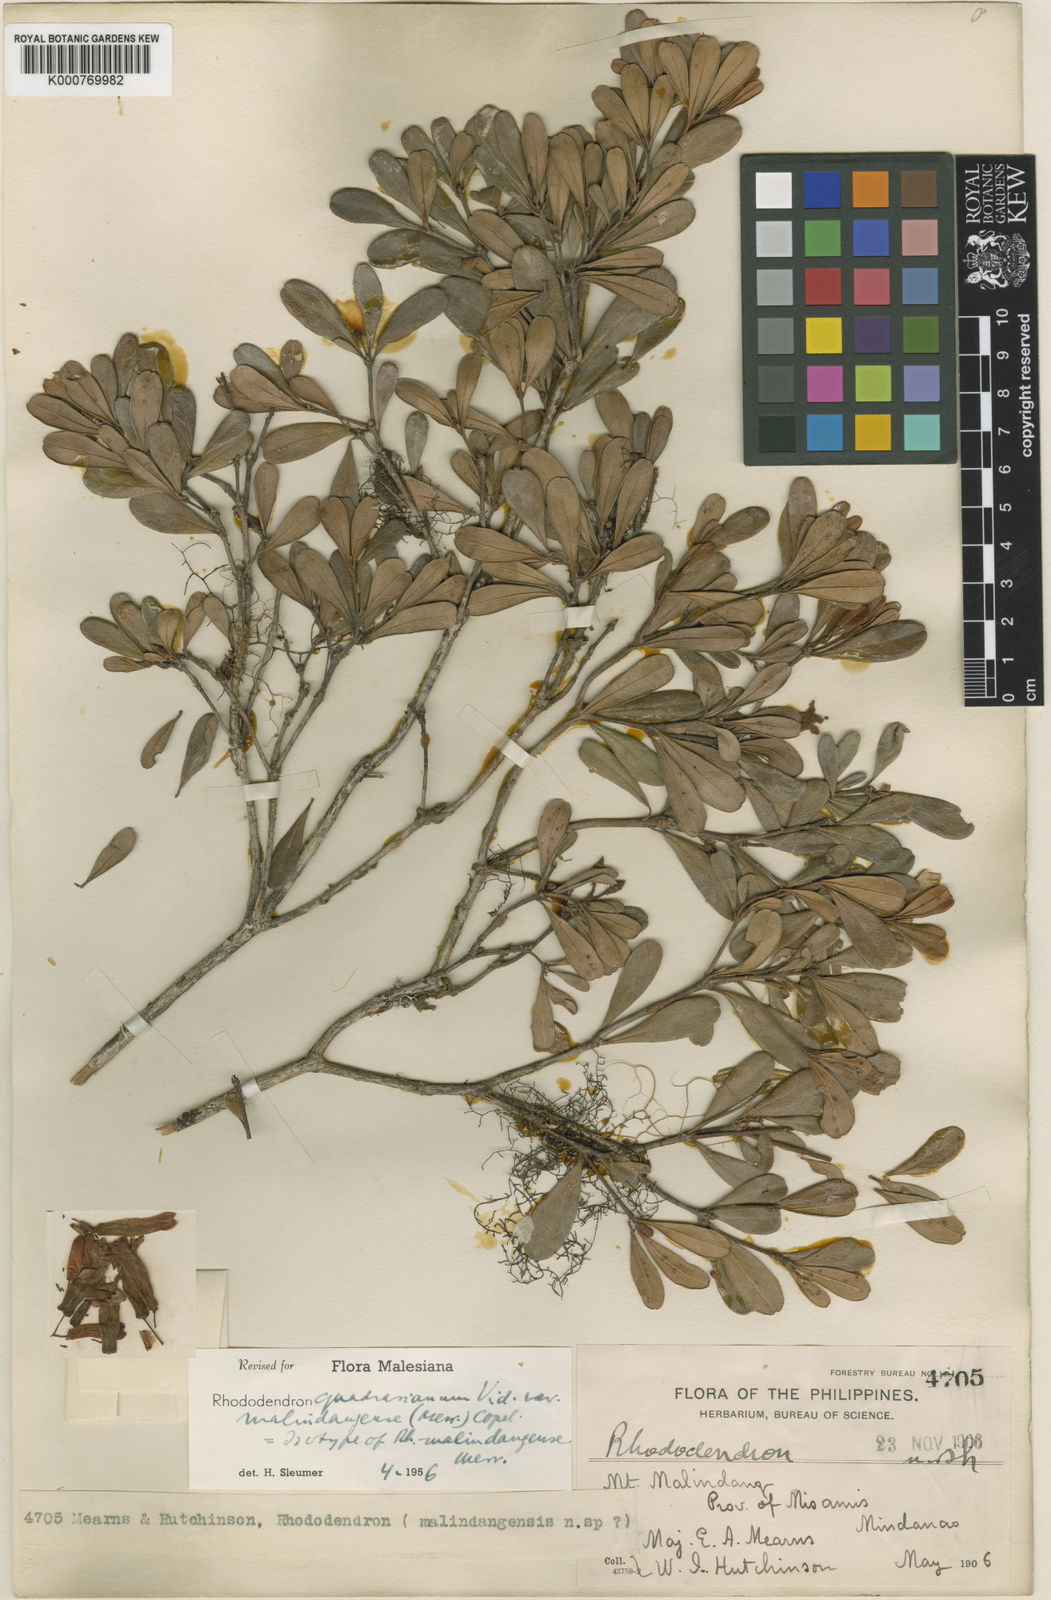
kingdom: Plantae
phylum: Tracheophyta
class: Magnoliopsida
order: Ericales
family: Ericaceae
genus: Rhododendron
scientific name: Rhododendron quadrasianum
